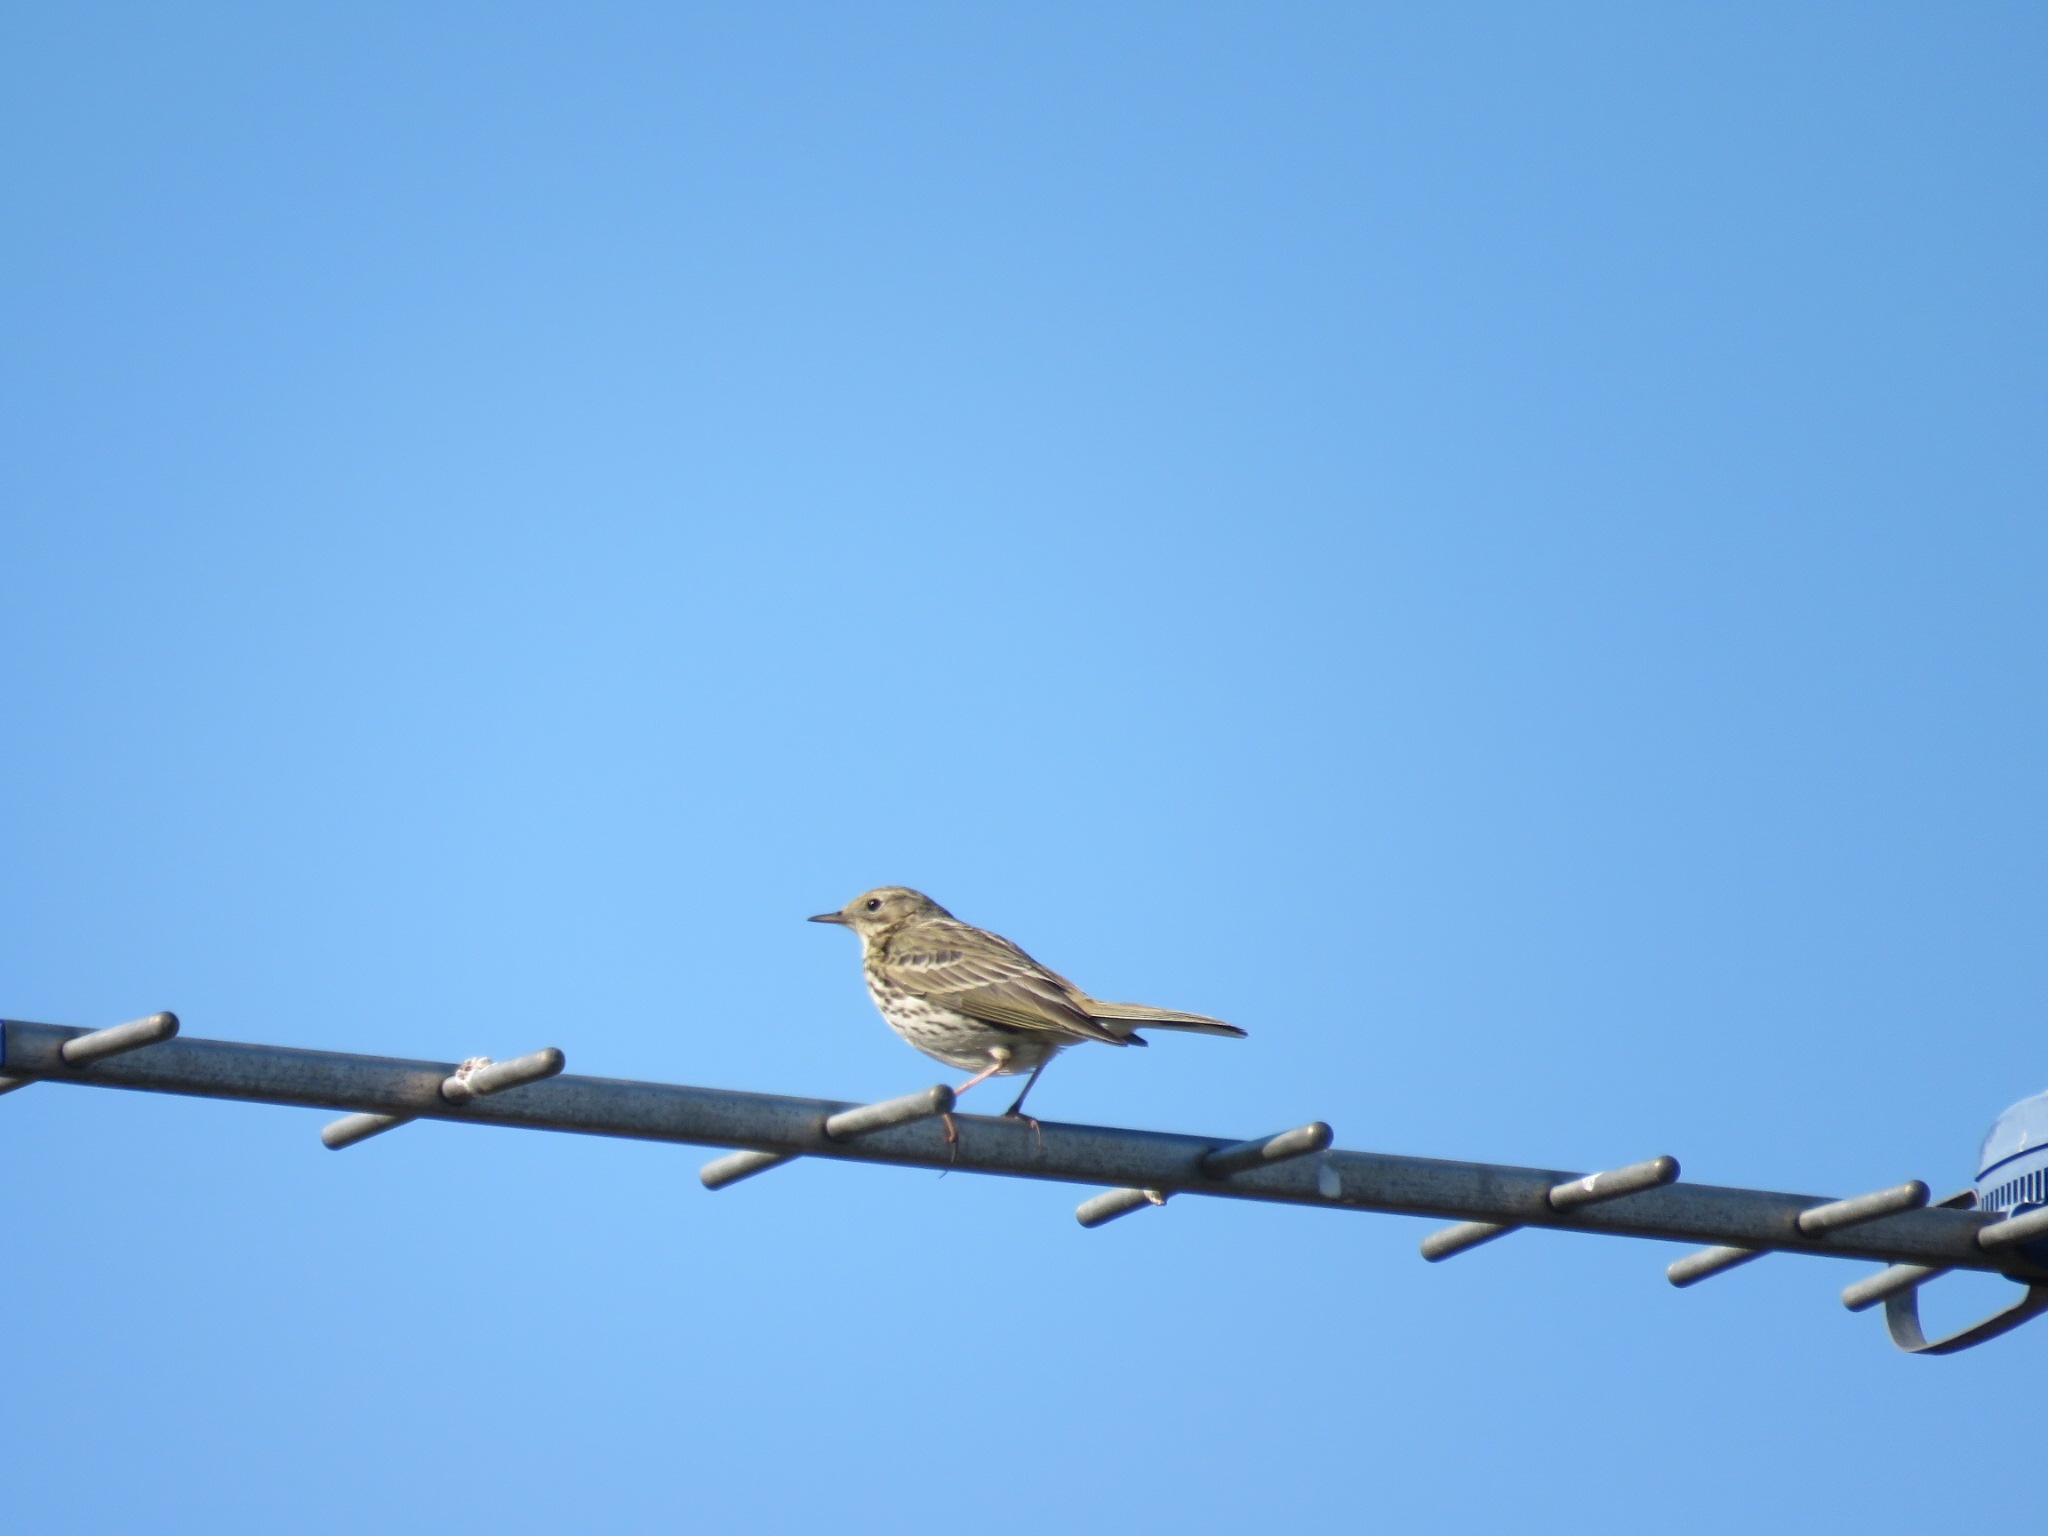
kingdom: Animalia
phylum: Chordata
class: Aves
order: Passeriformes
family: Motacillidae
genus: Anthus
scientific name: Anthus pratensis
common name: Engpiber
